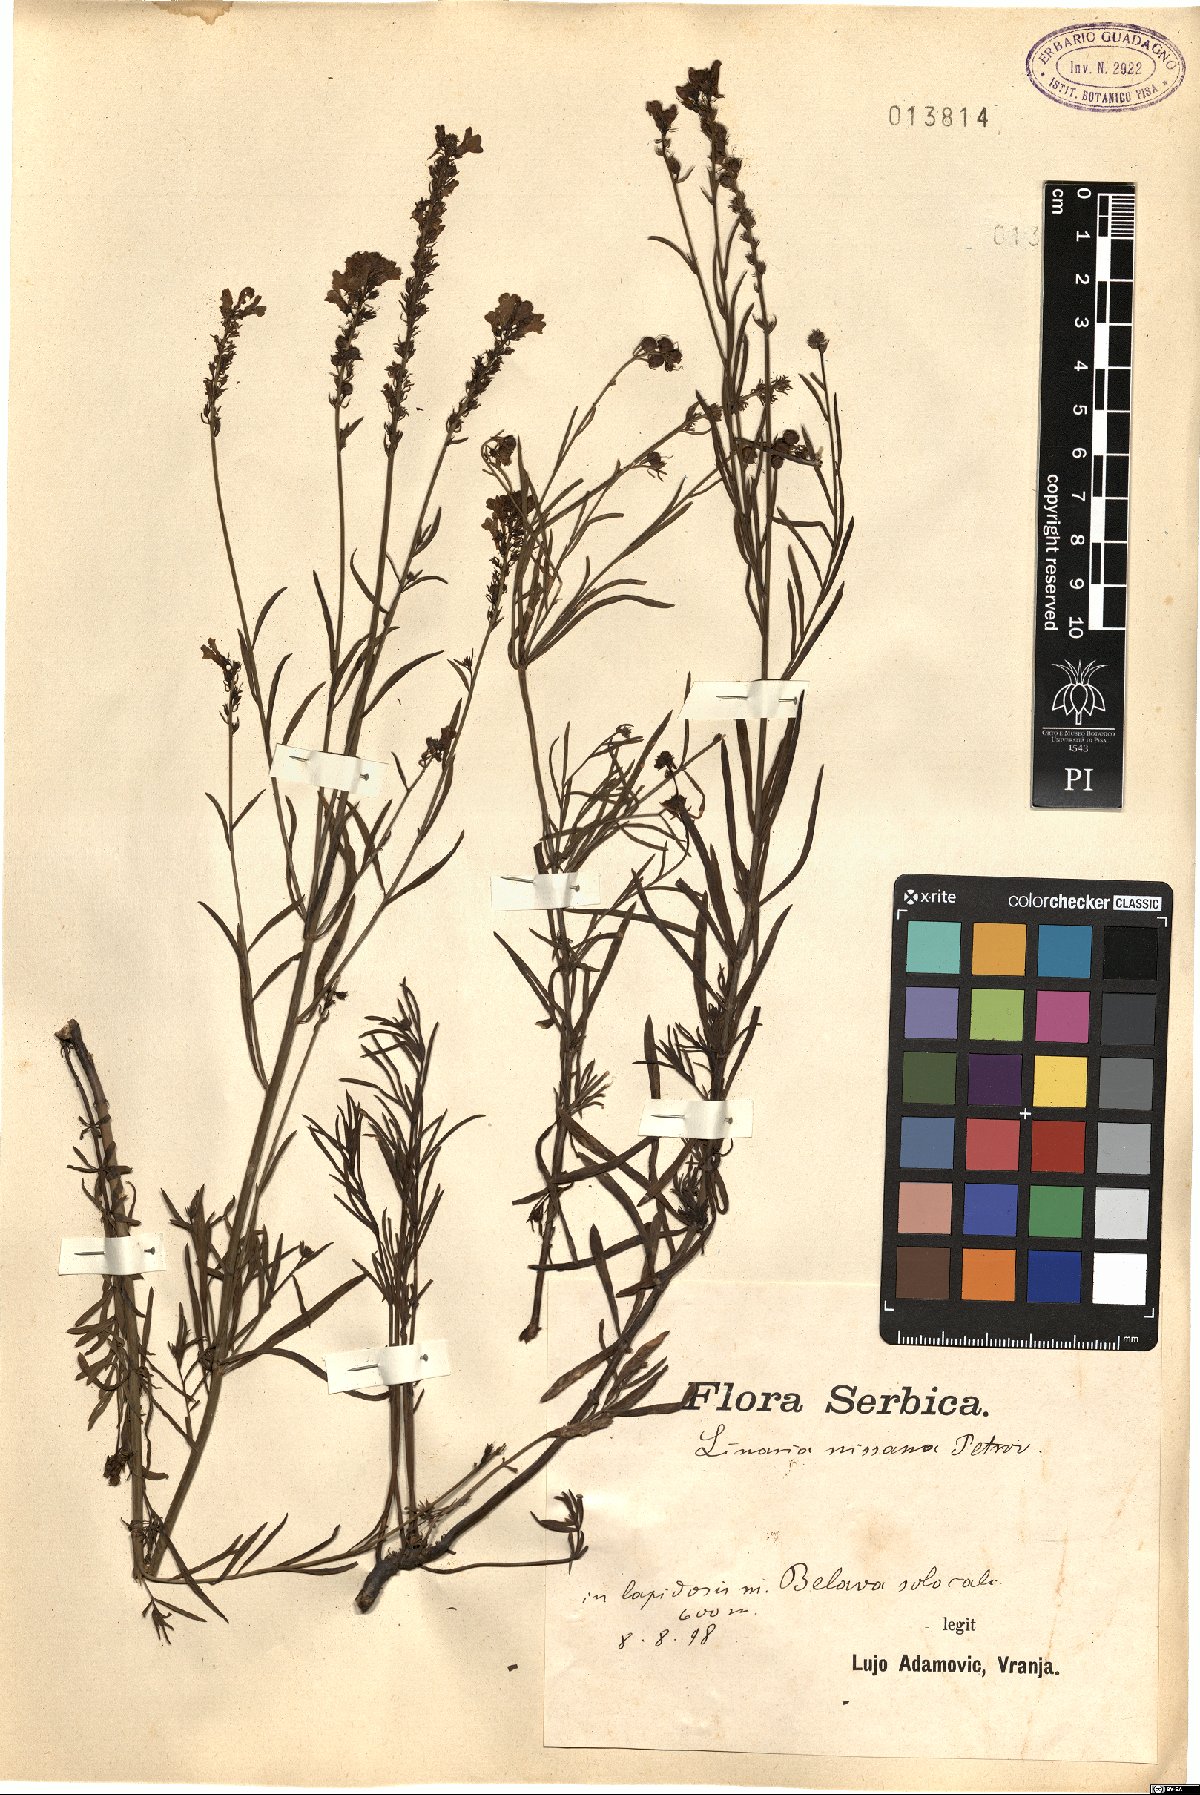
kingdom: Plantae
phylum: Tracheophyta
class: Magnoliopsida
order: Lamiales
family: Plantaginaceae
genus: Linaria
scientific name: Linaria rubioides
